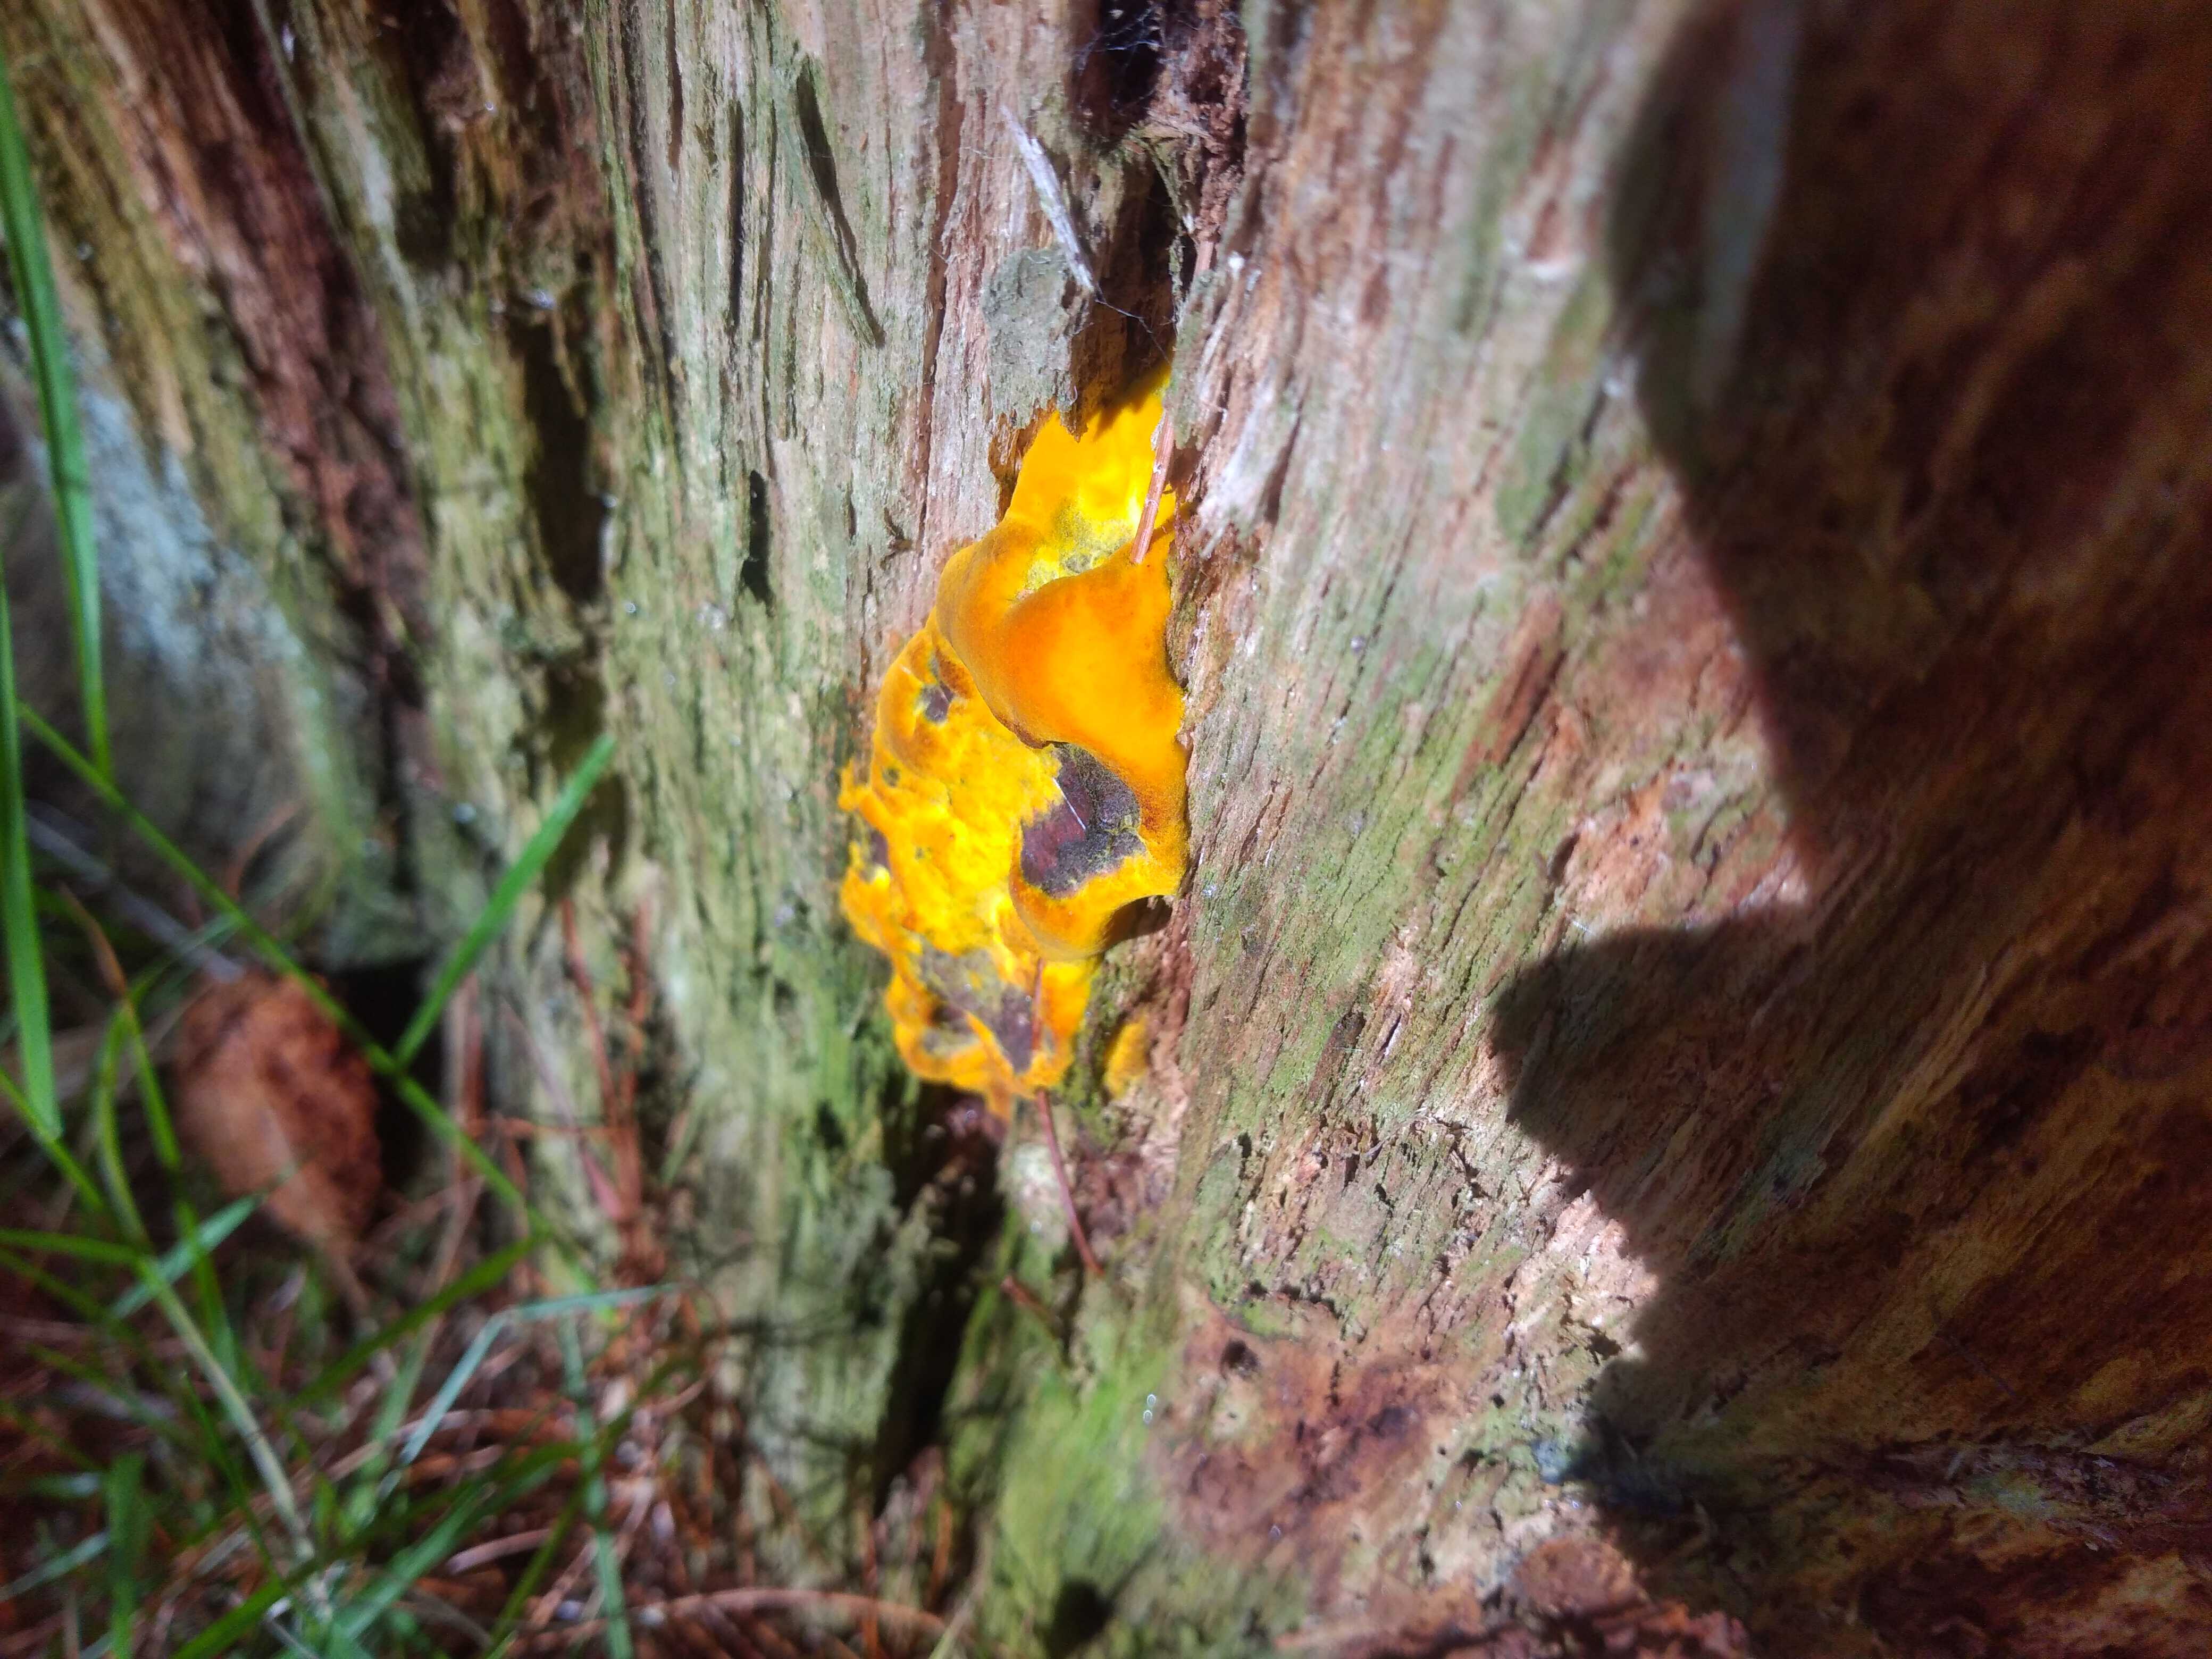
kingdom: Fungi
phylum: Basidiomycota
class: Agaricomycetes
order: Polyporales
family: Laetiporaceae
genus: Phaeolus
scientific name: Phaeolus schweinitzii
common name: brunporesvamp
